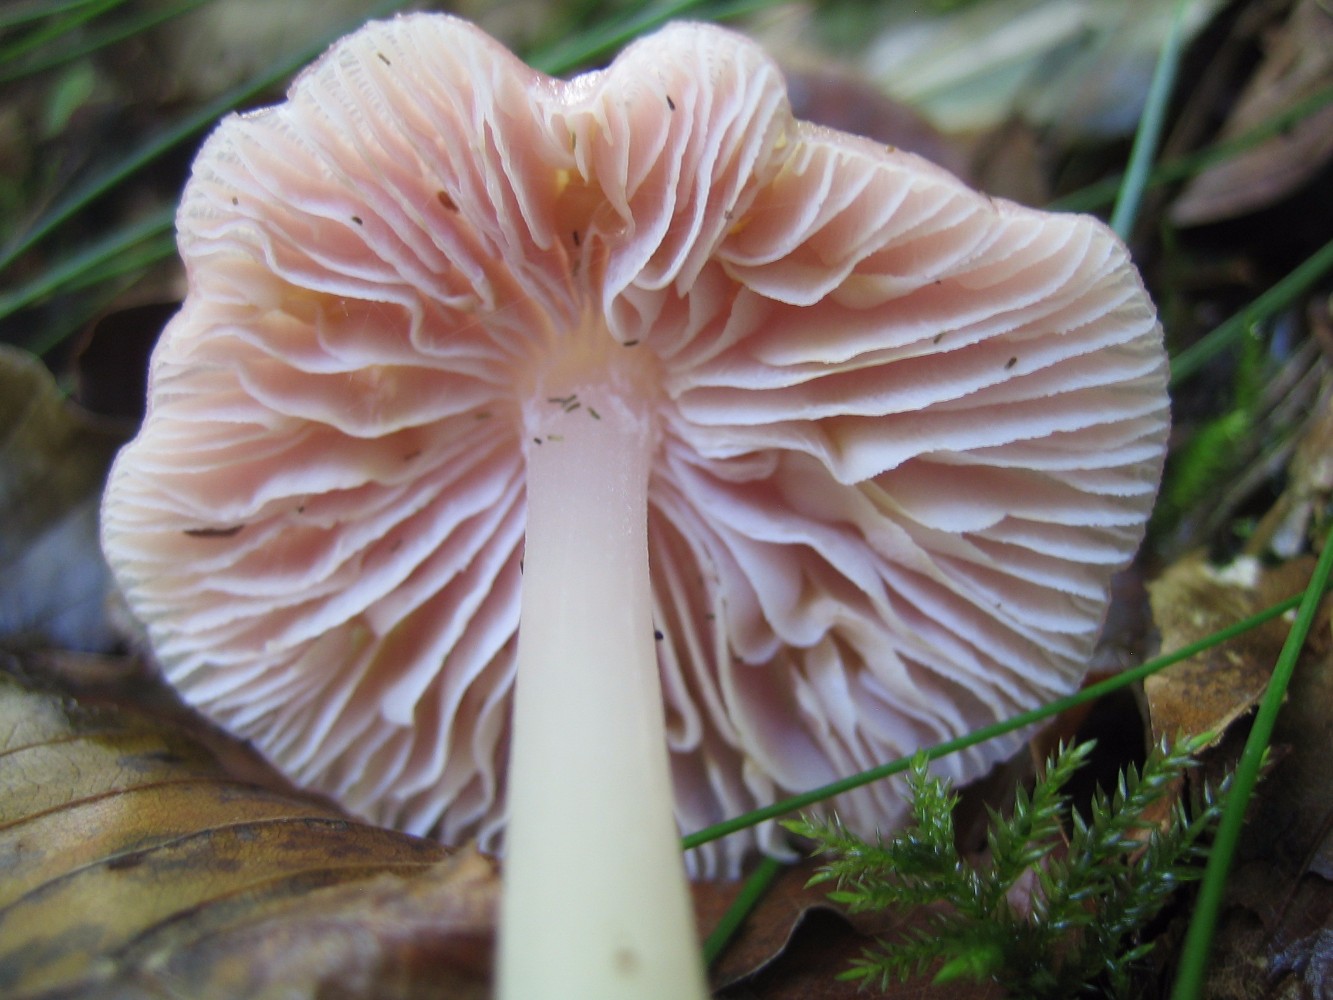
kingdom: Fungi
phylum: Basidiomycota
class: Agaricomycetes
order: Agaricales
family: Mycenaceae
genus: Mycena
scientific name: Mycena rosea
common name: rosa huesvamp
